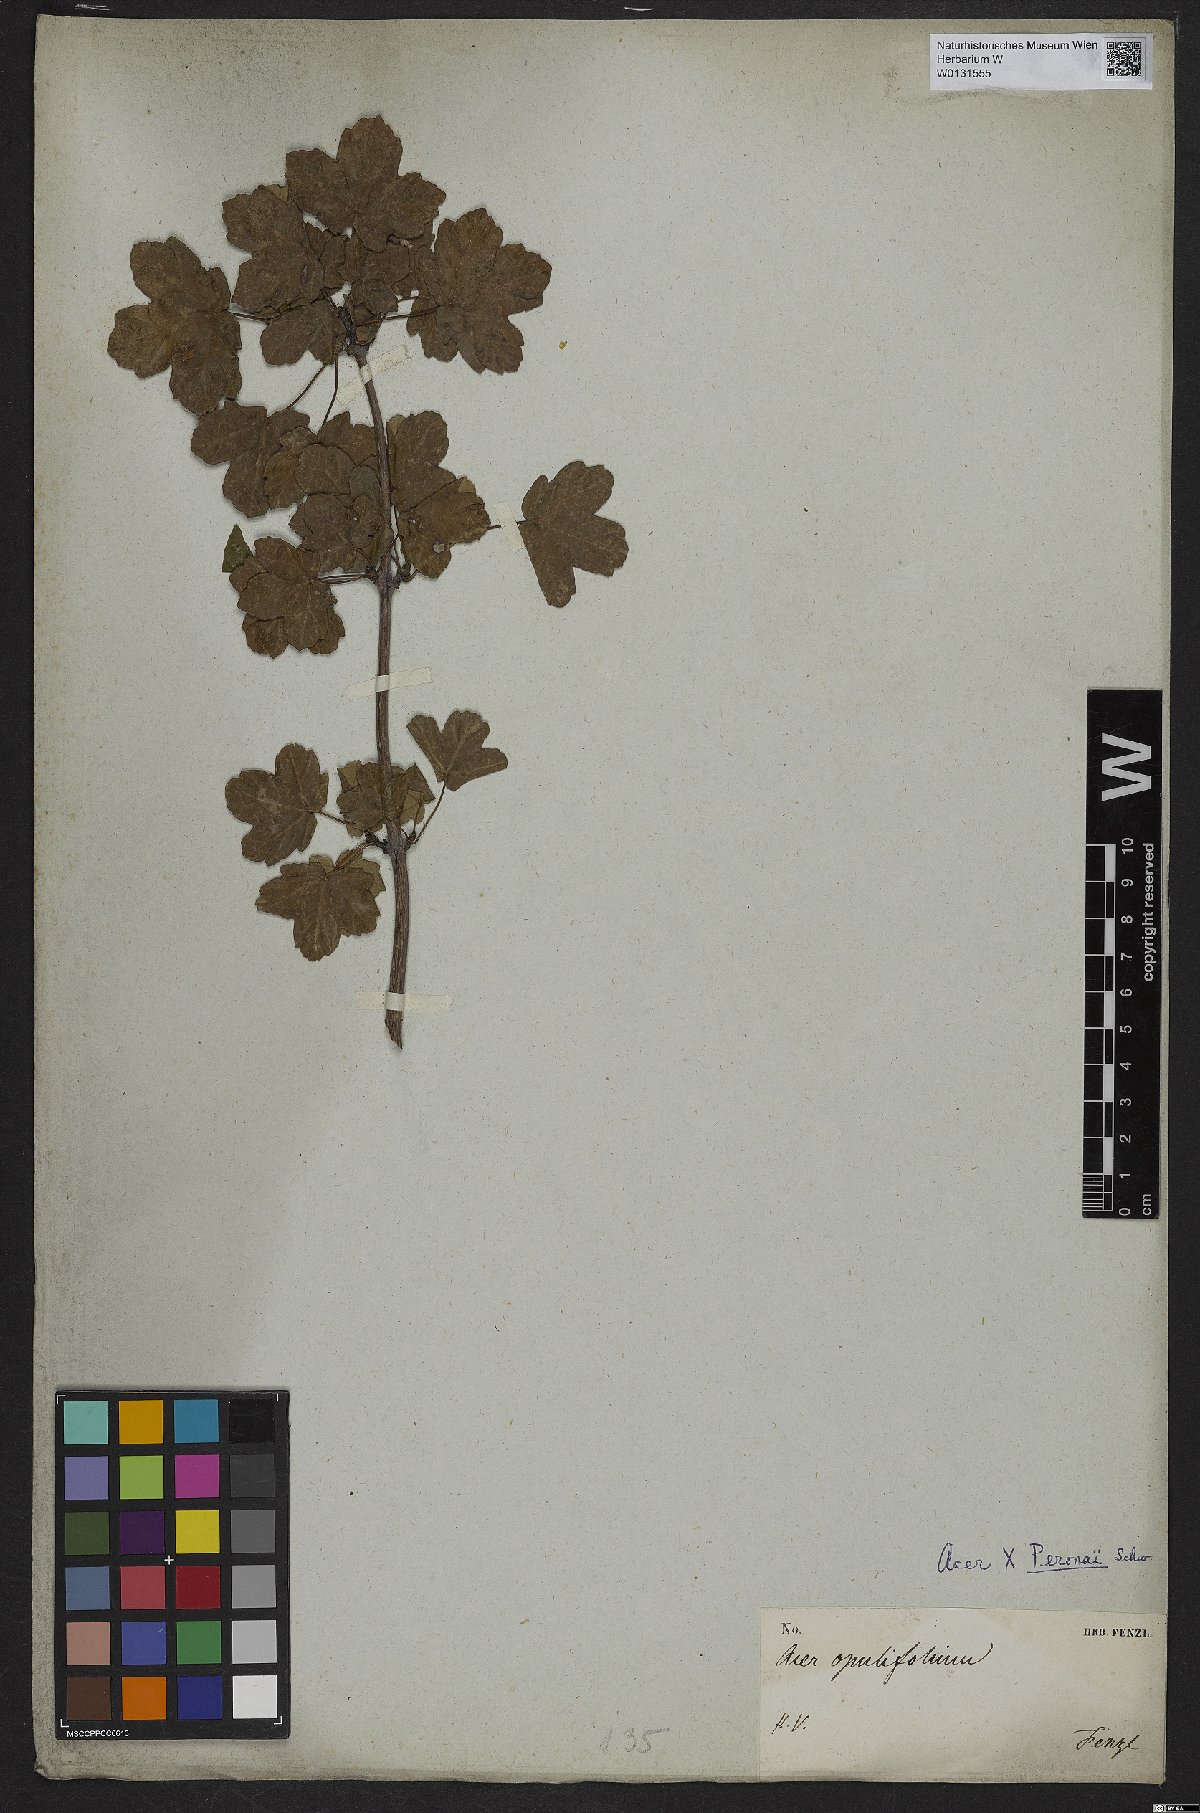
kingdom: Plantae
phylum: Tracheophyta
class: Magnoliopsida
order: Sapindales
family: Aceraceae
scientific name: Aceraceae
